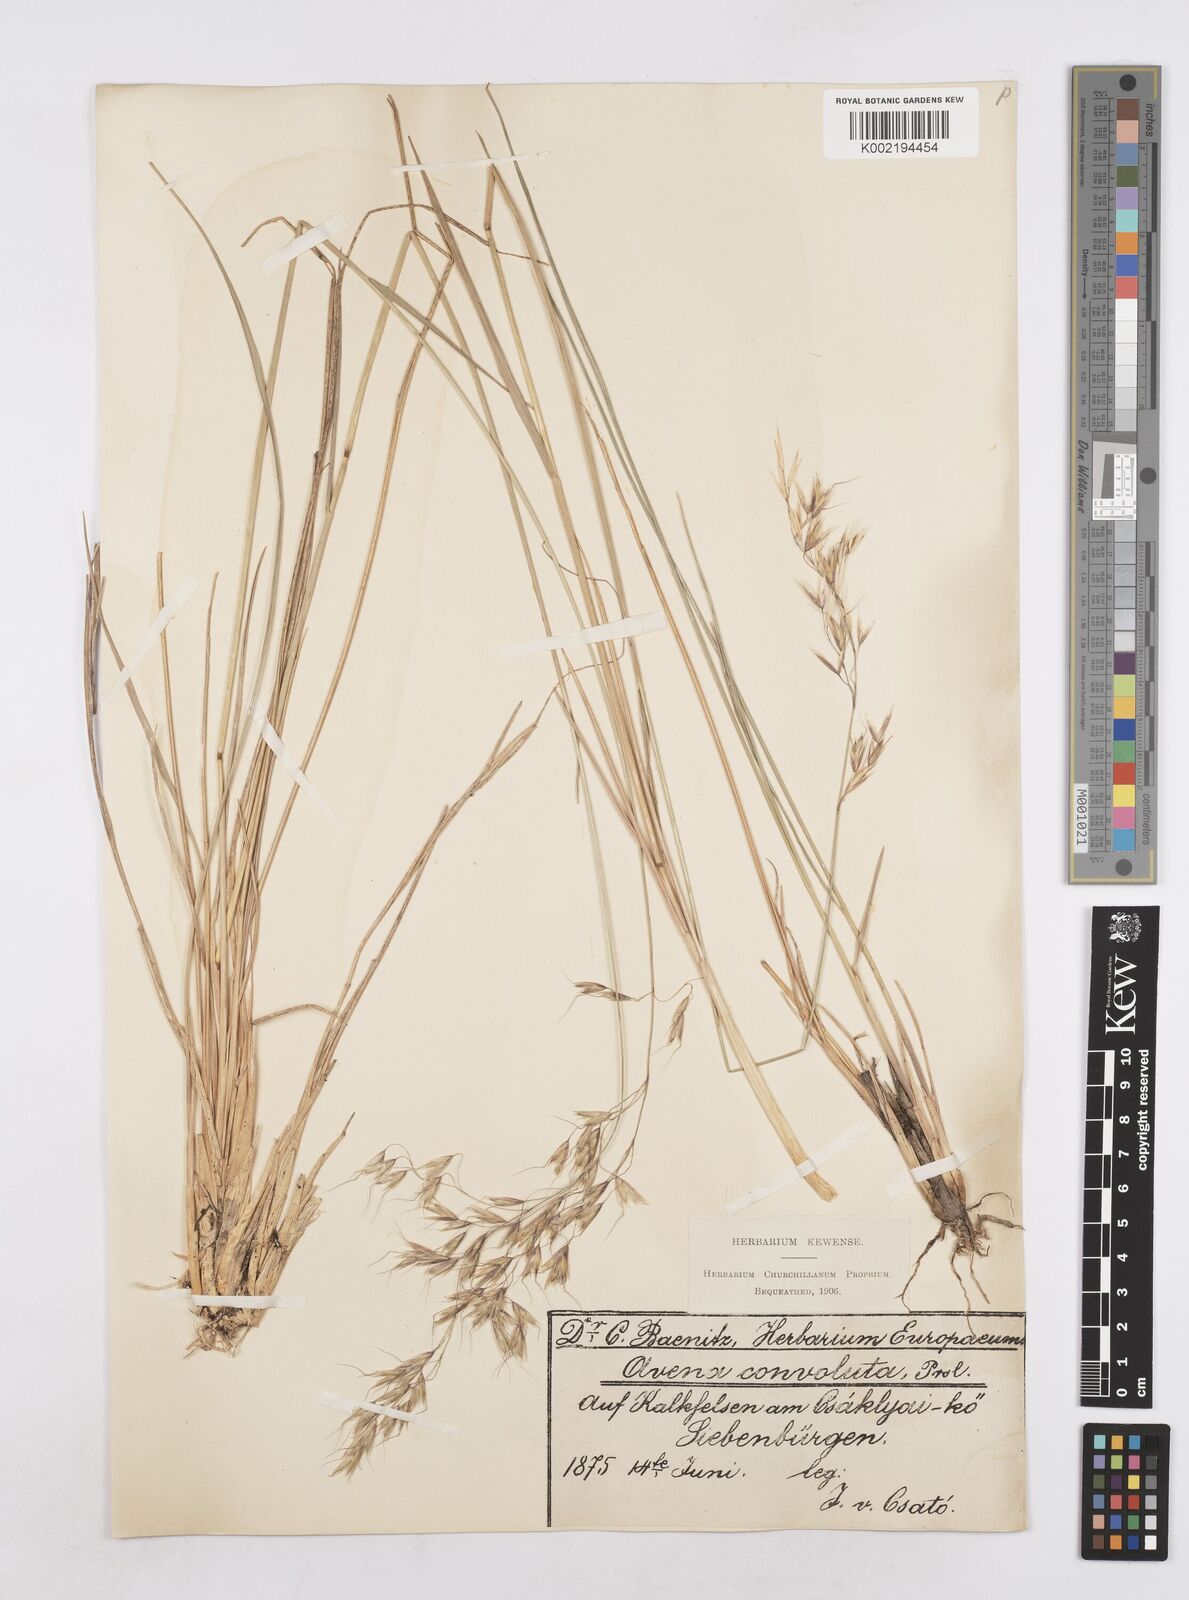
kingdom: Plantae
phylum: Tracheophyta
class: Liliopsida
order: Poales
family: Poaceae
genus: Helictotrichon
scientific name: Helictotrichon convolutum
